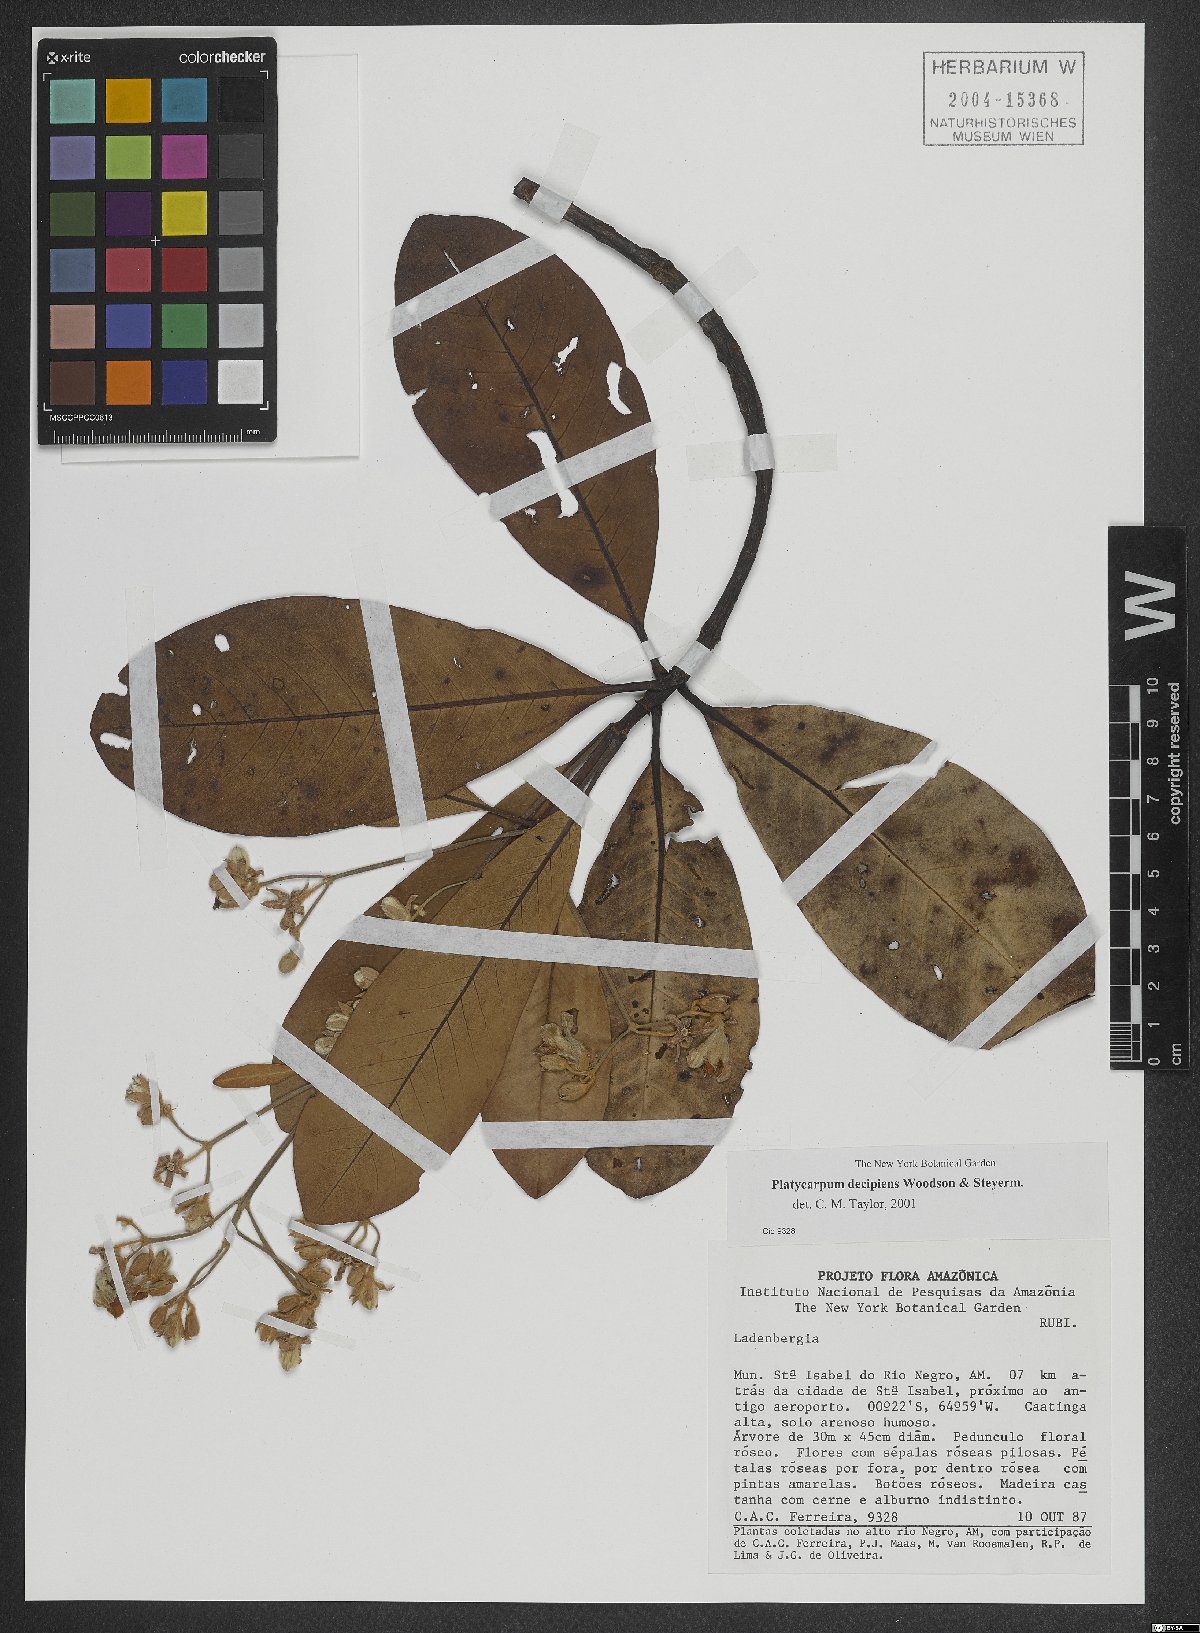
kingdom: Plantae
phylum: Tracheophyta
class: Magnoliopsida
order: Gentianales
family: Rubiaceae
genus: Platycarpum
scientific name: Platycarpum decipiens
